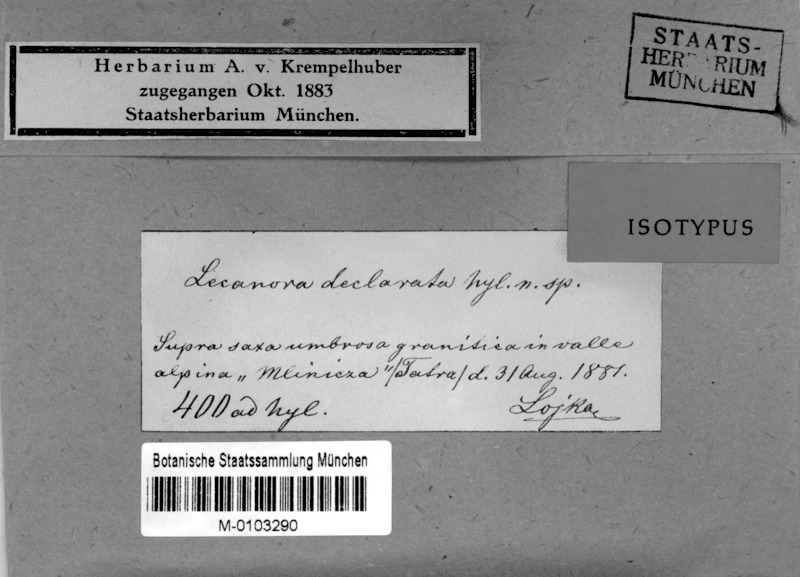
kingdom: Fungi
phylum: Ascomycota
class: Lecanoromycetes
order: Teloschistales
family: Teloschistaceae
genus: Caloplaca
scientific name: Caloplaca
